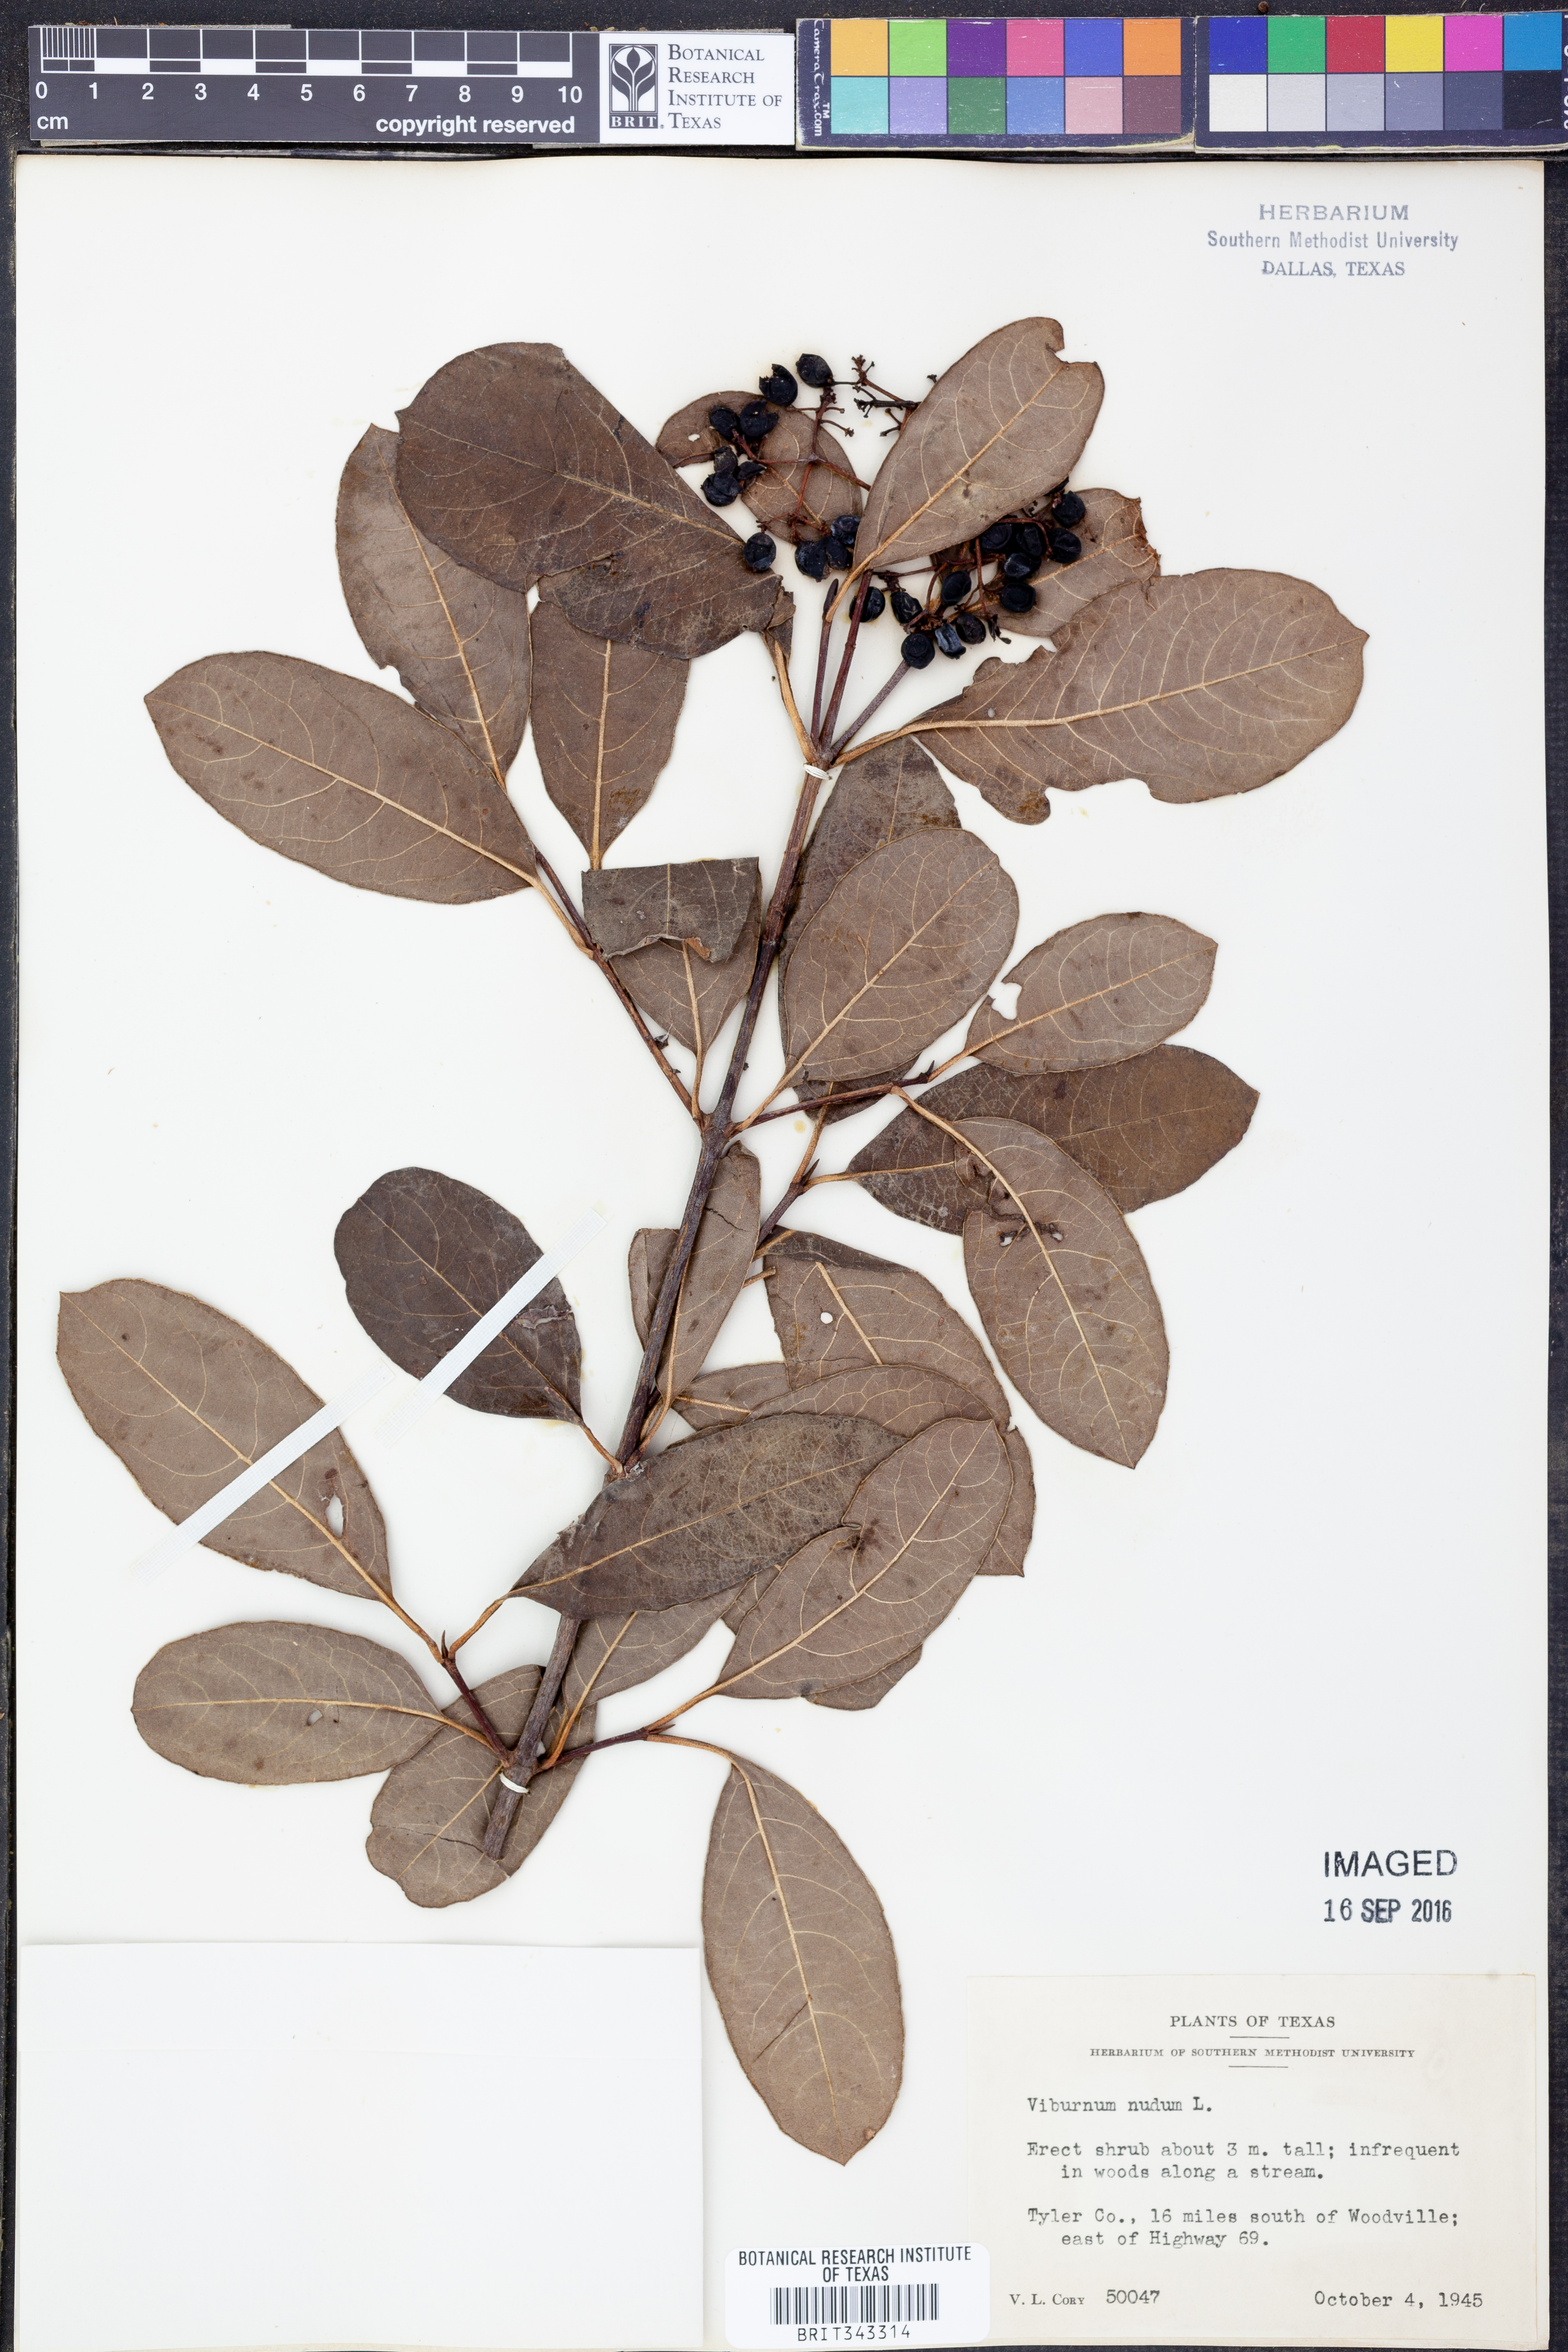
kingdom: Plantae
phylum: Tracheophyta
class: Magnoliopsida
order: Dipsacales
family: Viburnaceae
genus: Viburnum
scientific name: Viburnum nudum
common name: Possum haw
